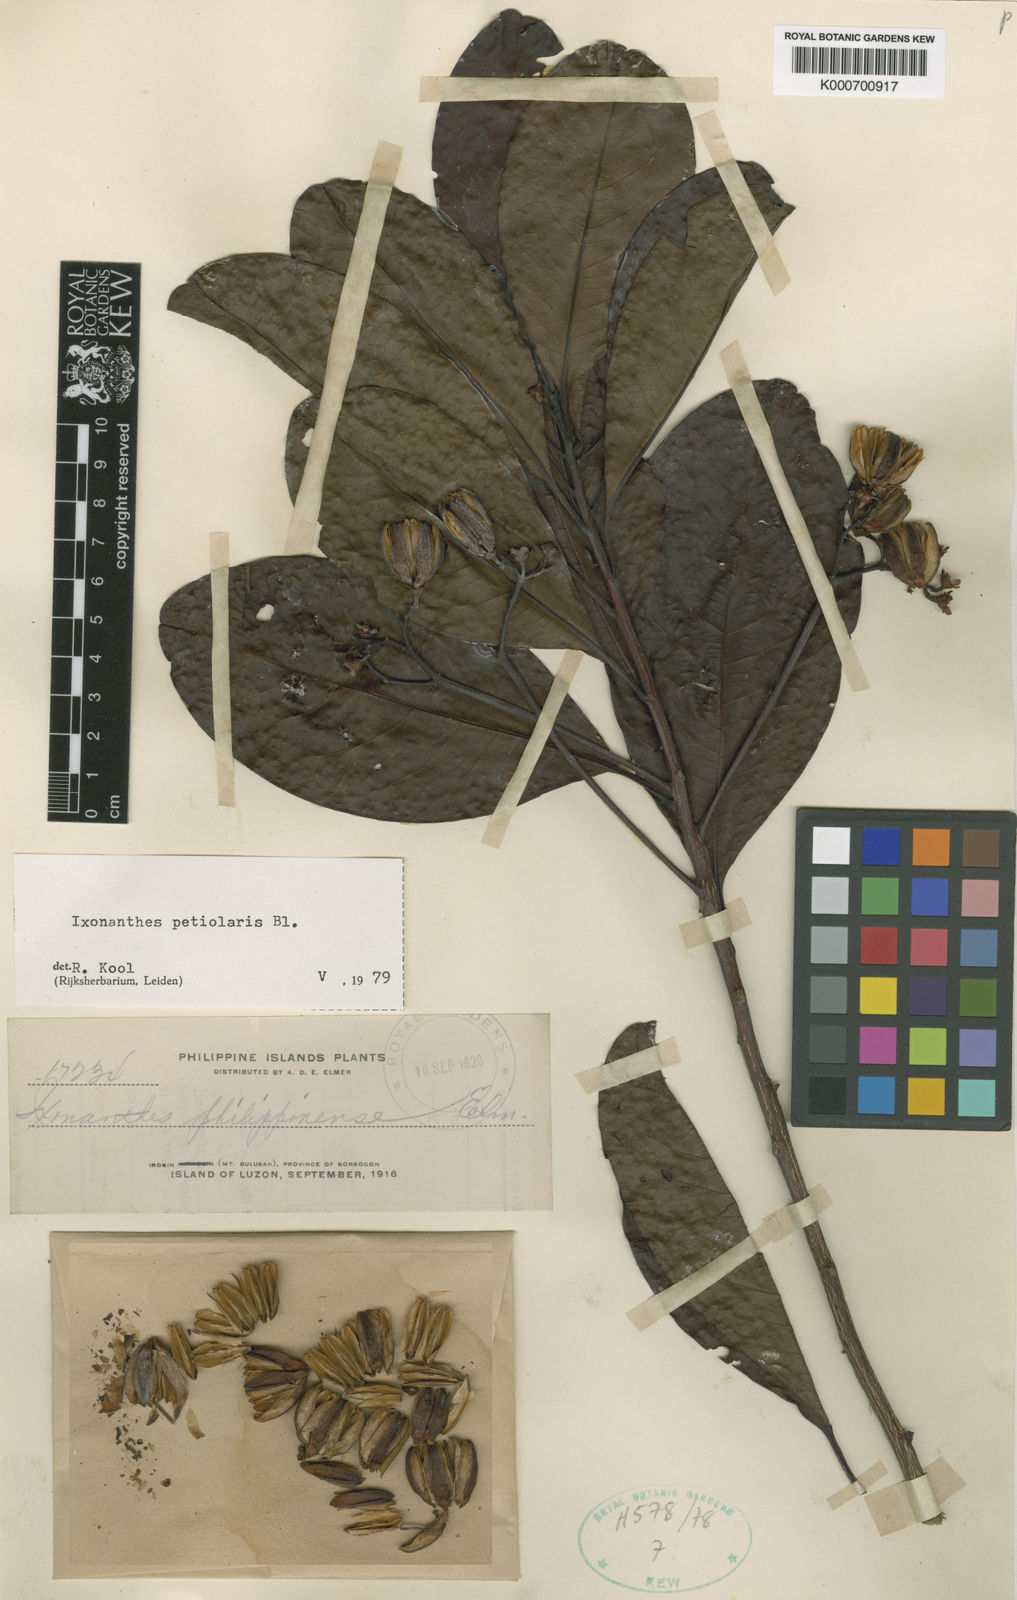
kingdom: Plantae
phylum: Tracheophyta
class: Magnoliopsida
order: Malpighiales
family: Ixonanthaceae
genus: Ixonanthes
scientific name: Ixonanthes petiolaris
